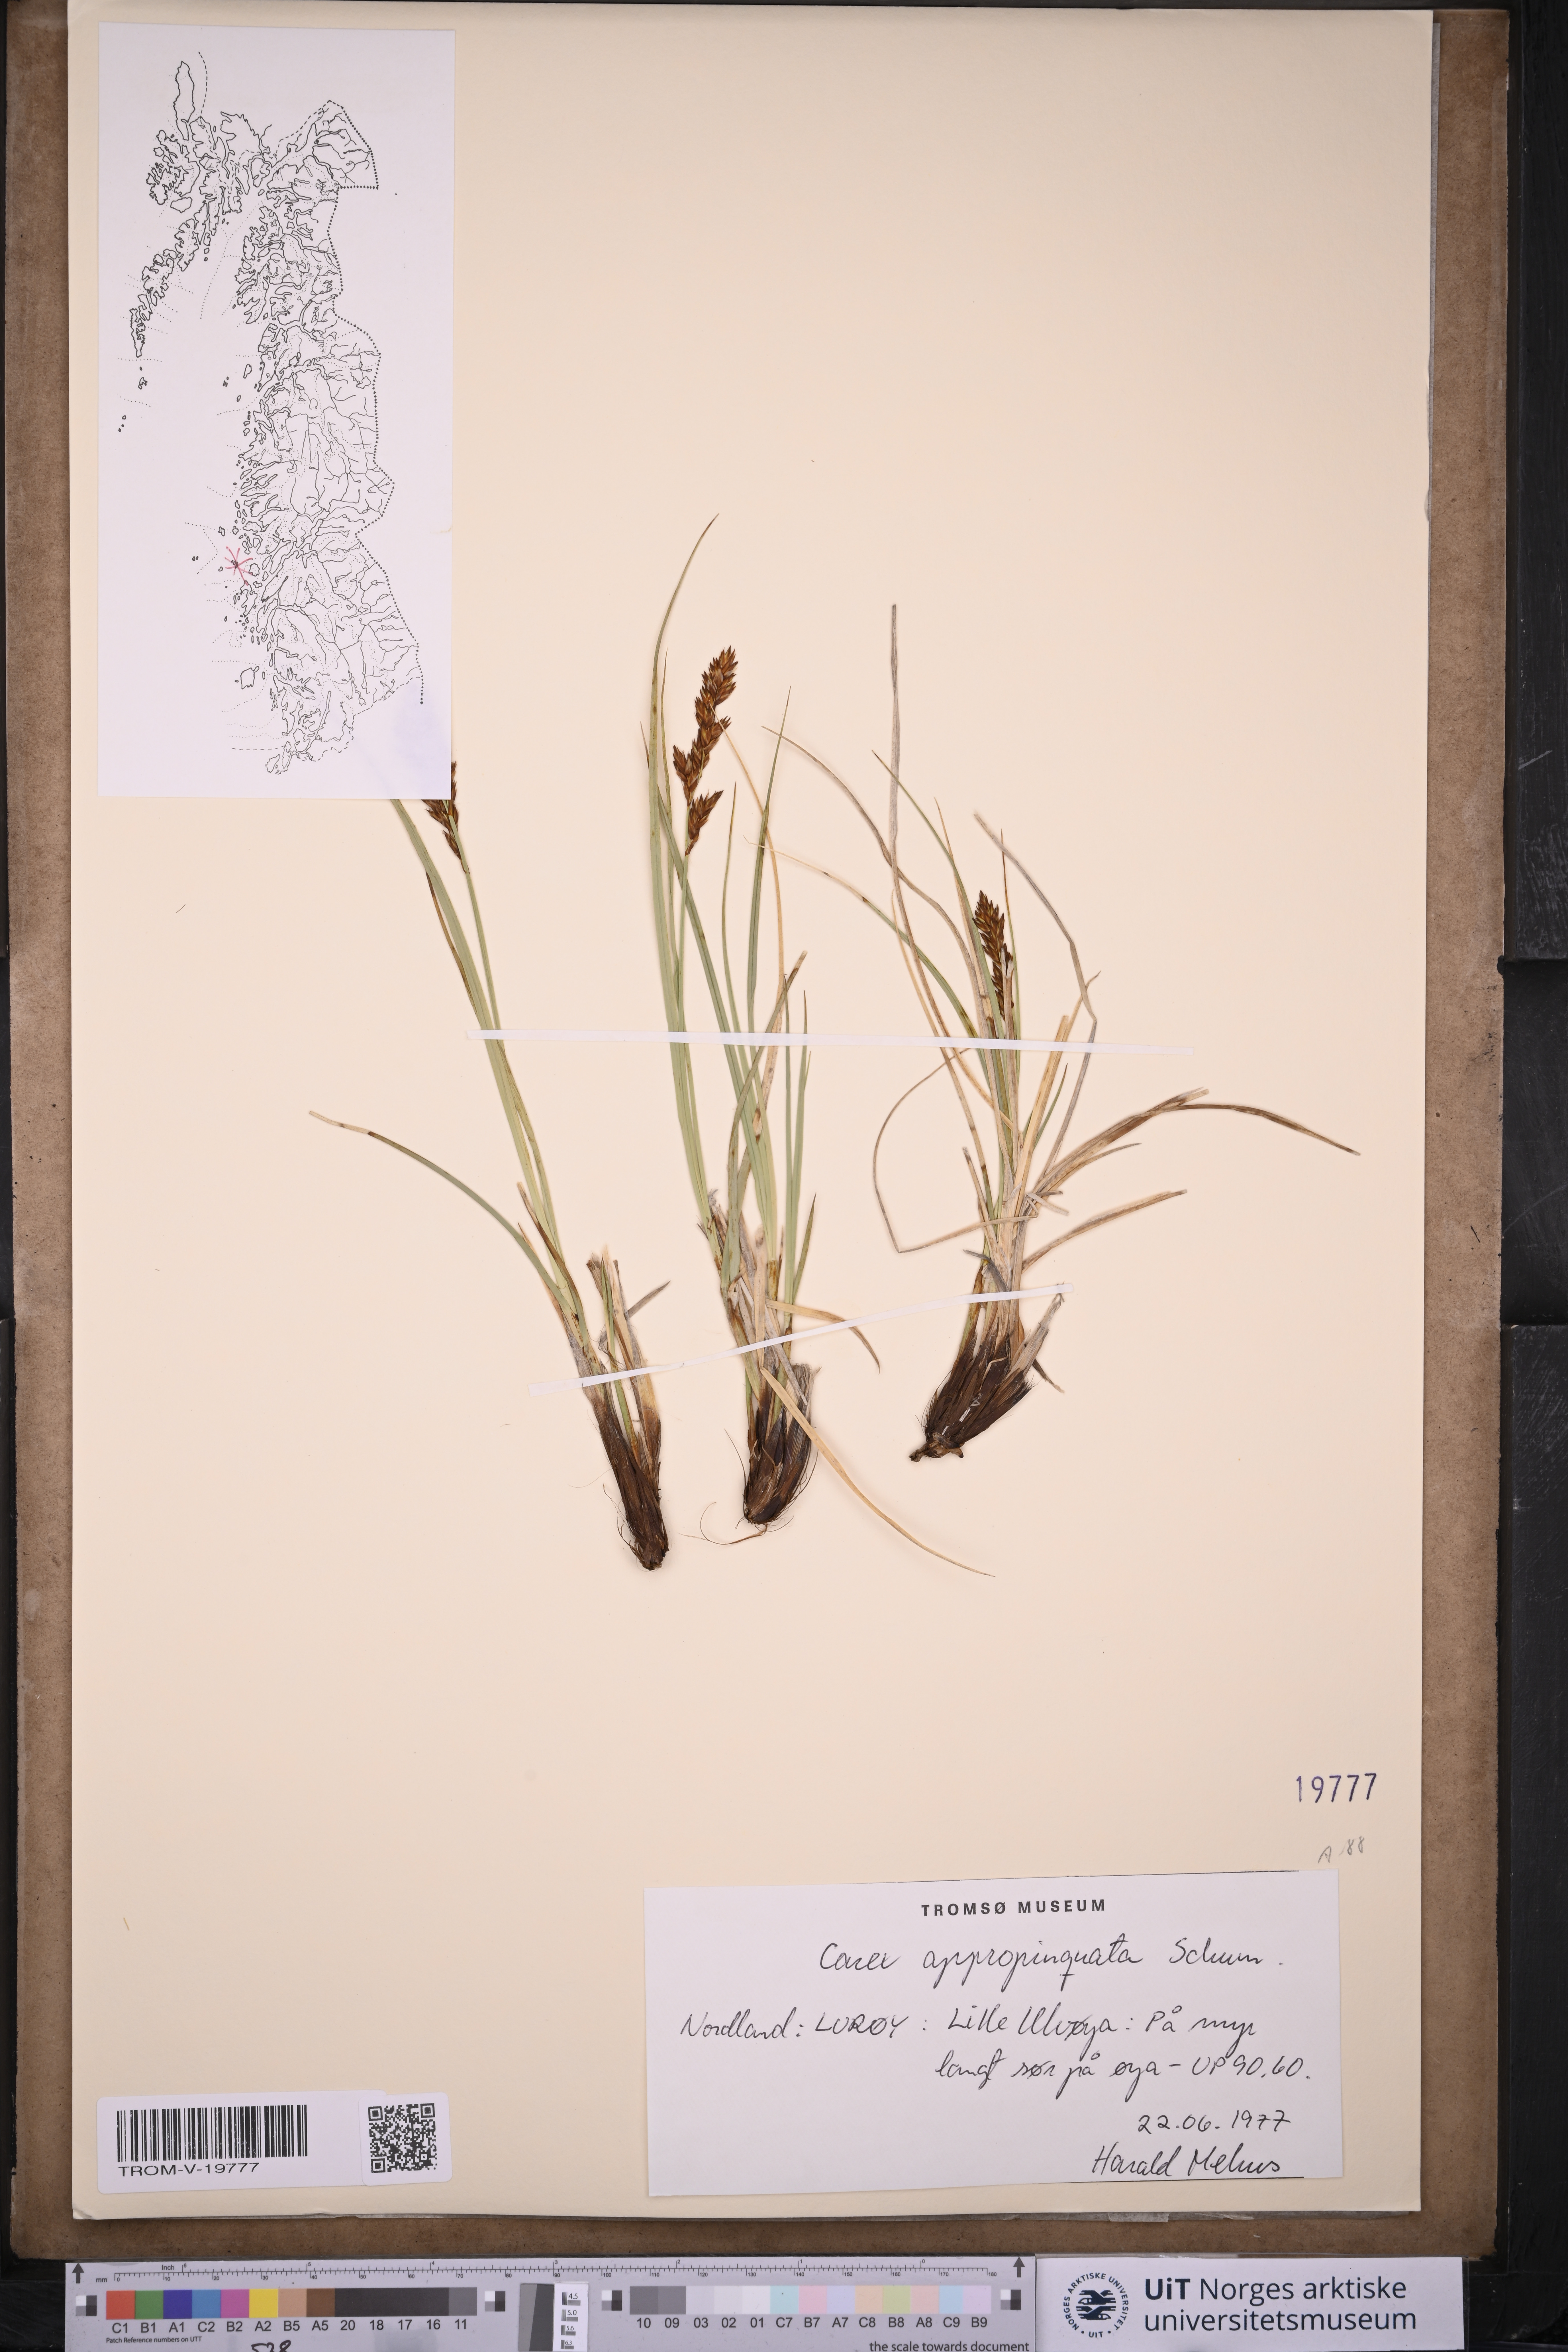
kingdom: Plantae
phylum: Tracheophyta
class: Liliopsida
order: Poales
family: Cyperaceae
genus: Carex
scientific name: Carex appropinquata
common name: Fibrous tussock-sedge
